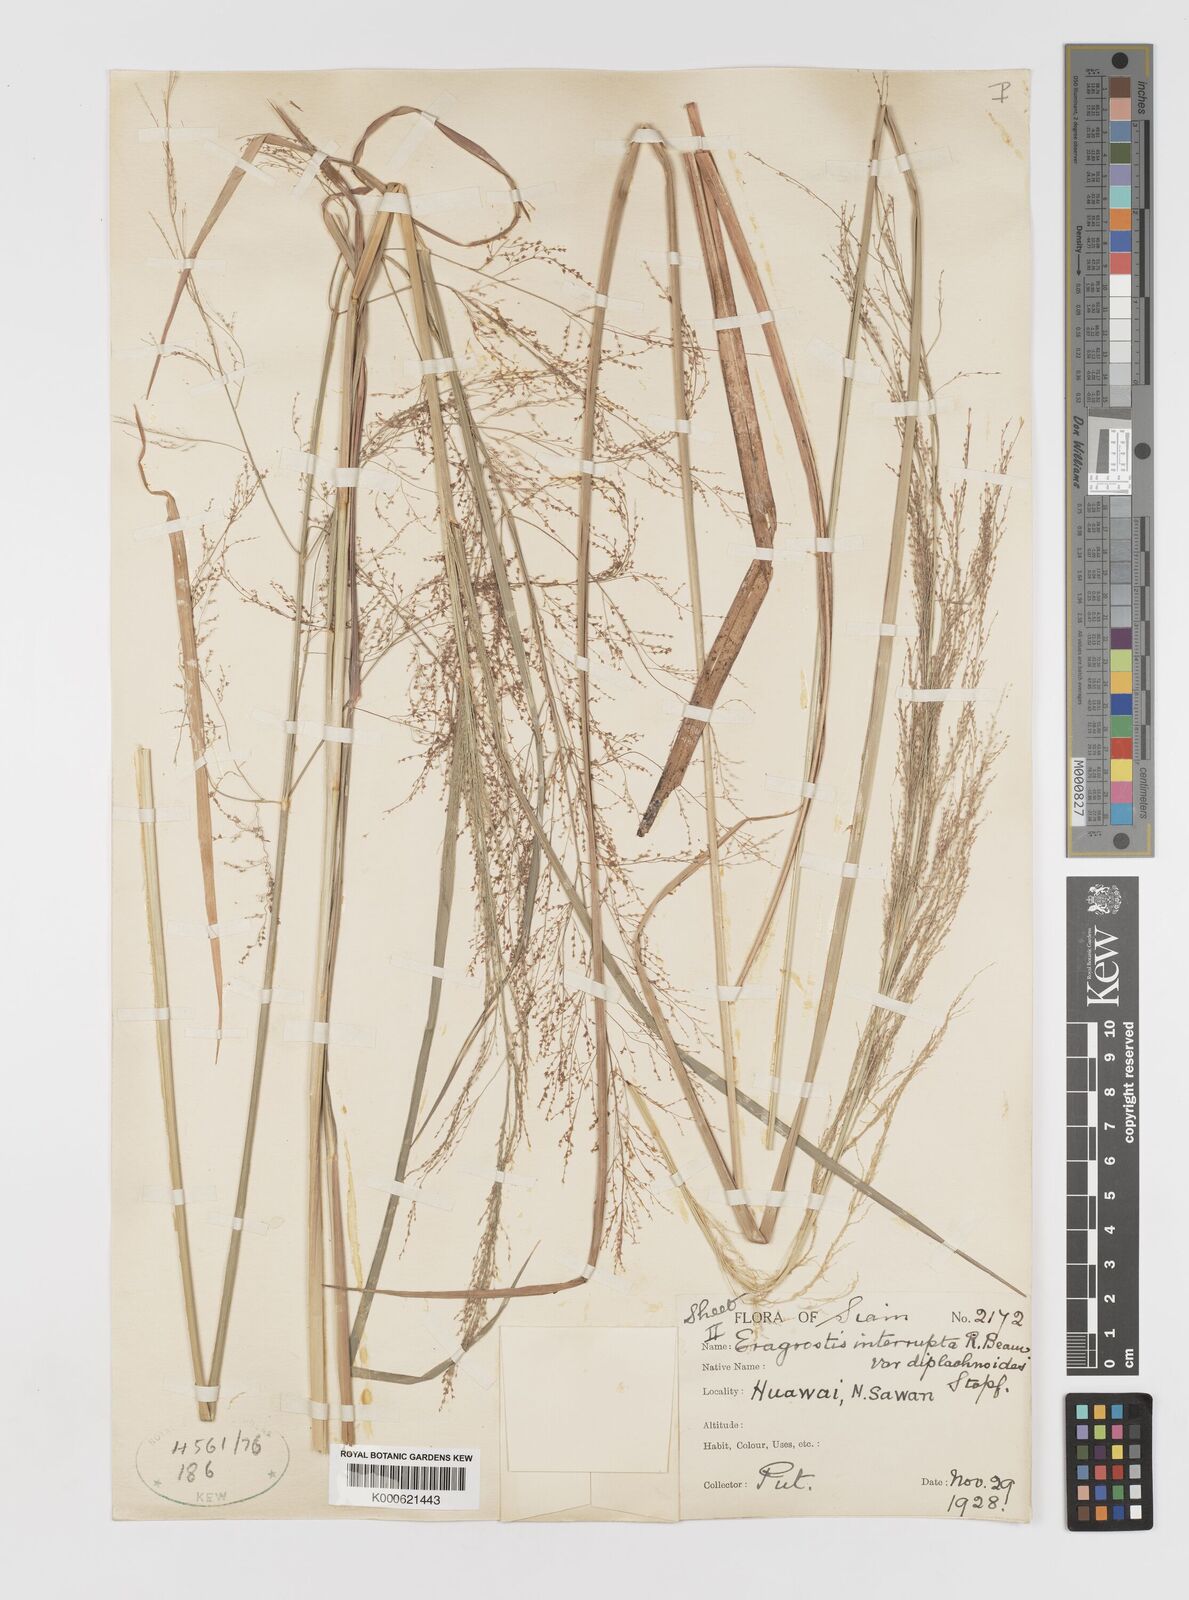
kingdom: Plantae
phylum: Tracheophyta
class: Liliopsida
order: Poales
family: Poaceae
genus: Eragrostis
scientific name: Eragrostis japonica
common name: Pond lovegrass
